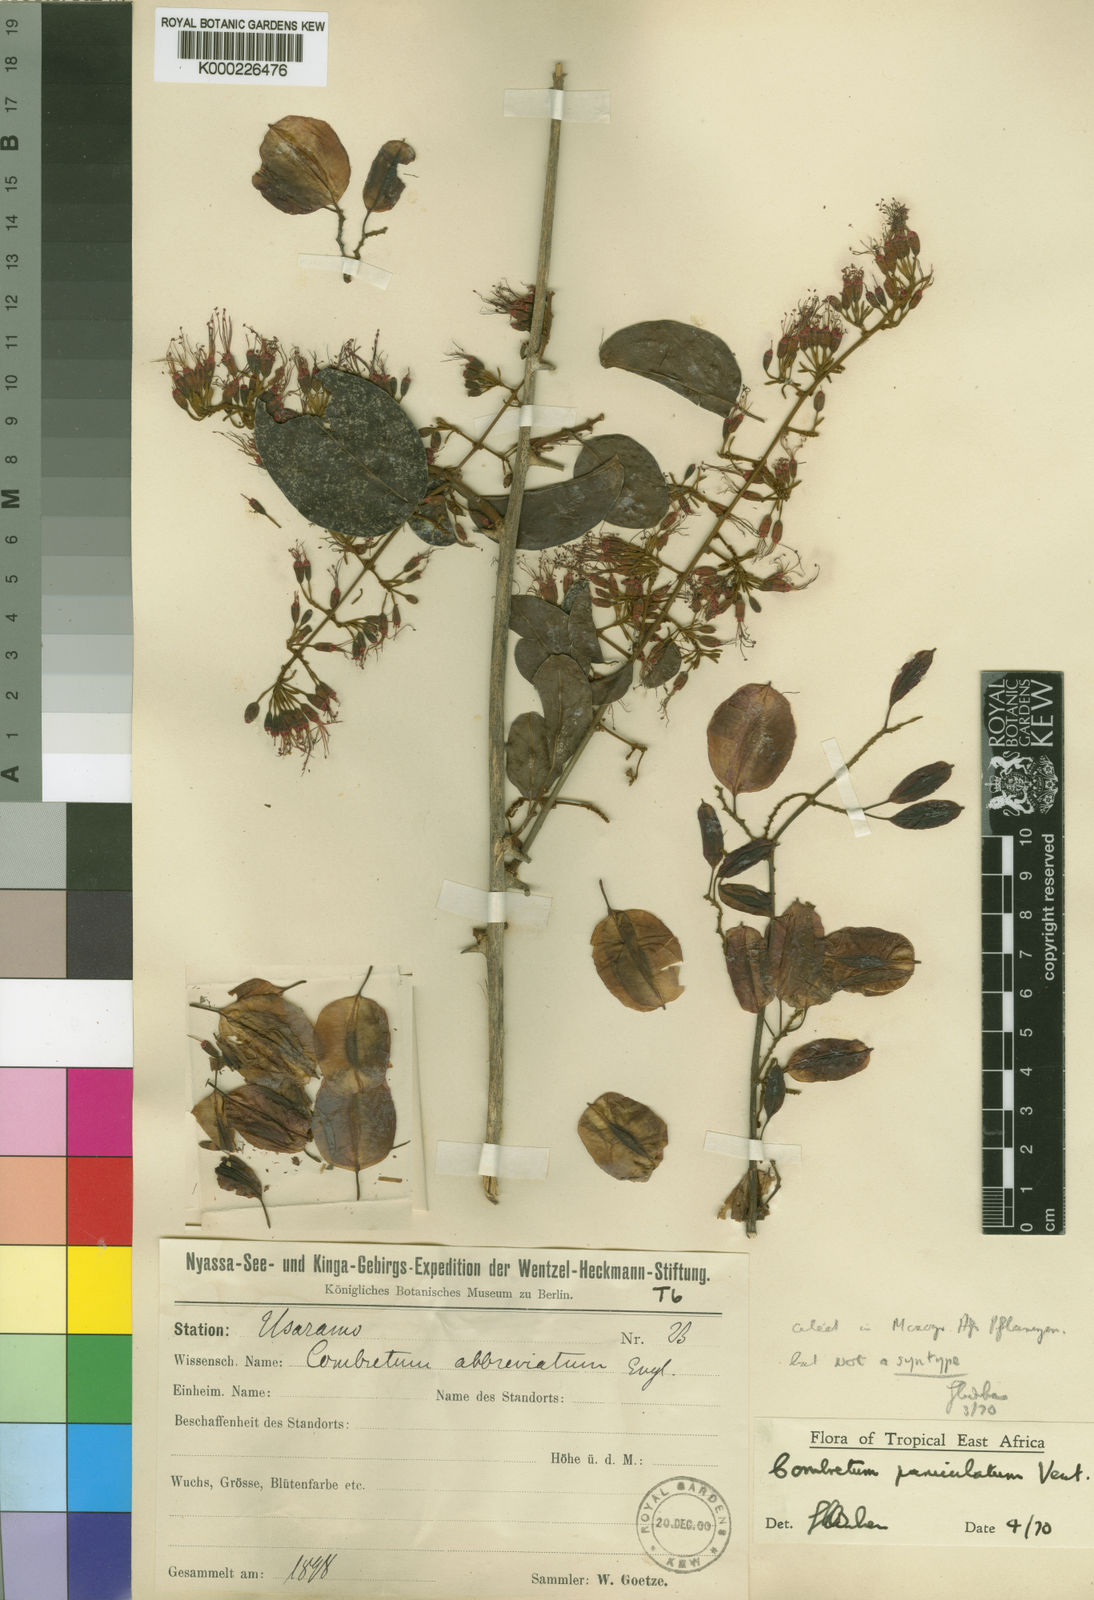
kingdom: Plantae
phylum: Tracheophyta
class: Magnoliopsida
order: Myrtales
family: Combretaceae
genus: Combretum
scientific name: Combretum paniculatum
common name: Fire vine
